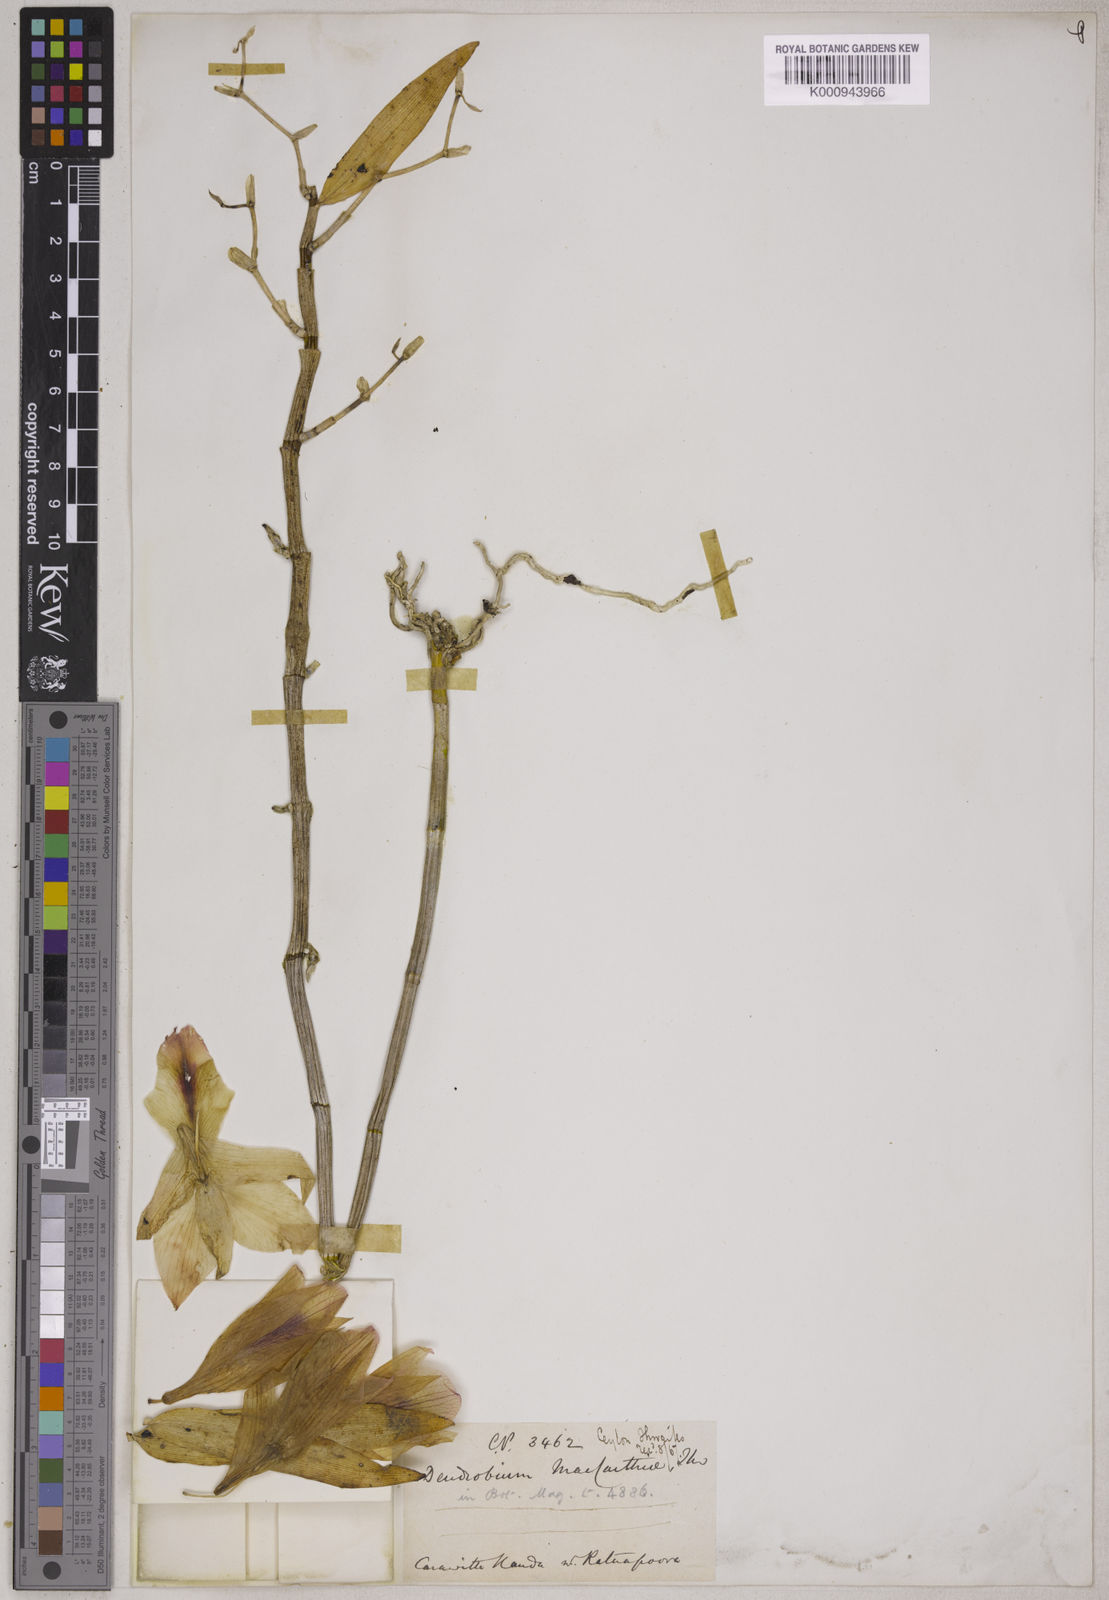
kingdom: Plantae
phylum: Tracheophyta
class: Liliopsida
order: Asparagales
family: Orchidaceae
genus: Dendrobium
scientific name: Dendrobium maccarthiae
